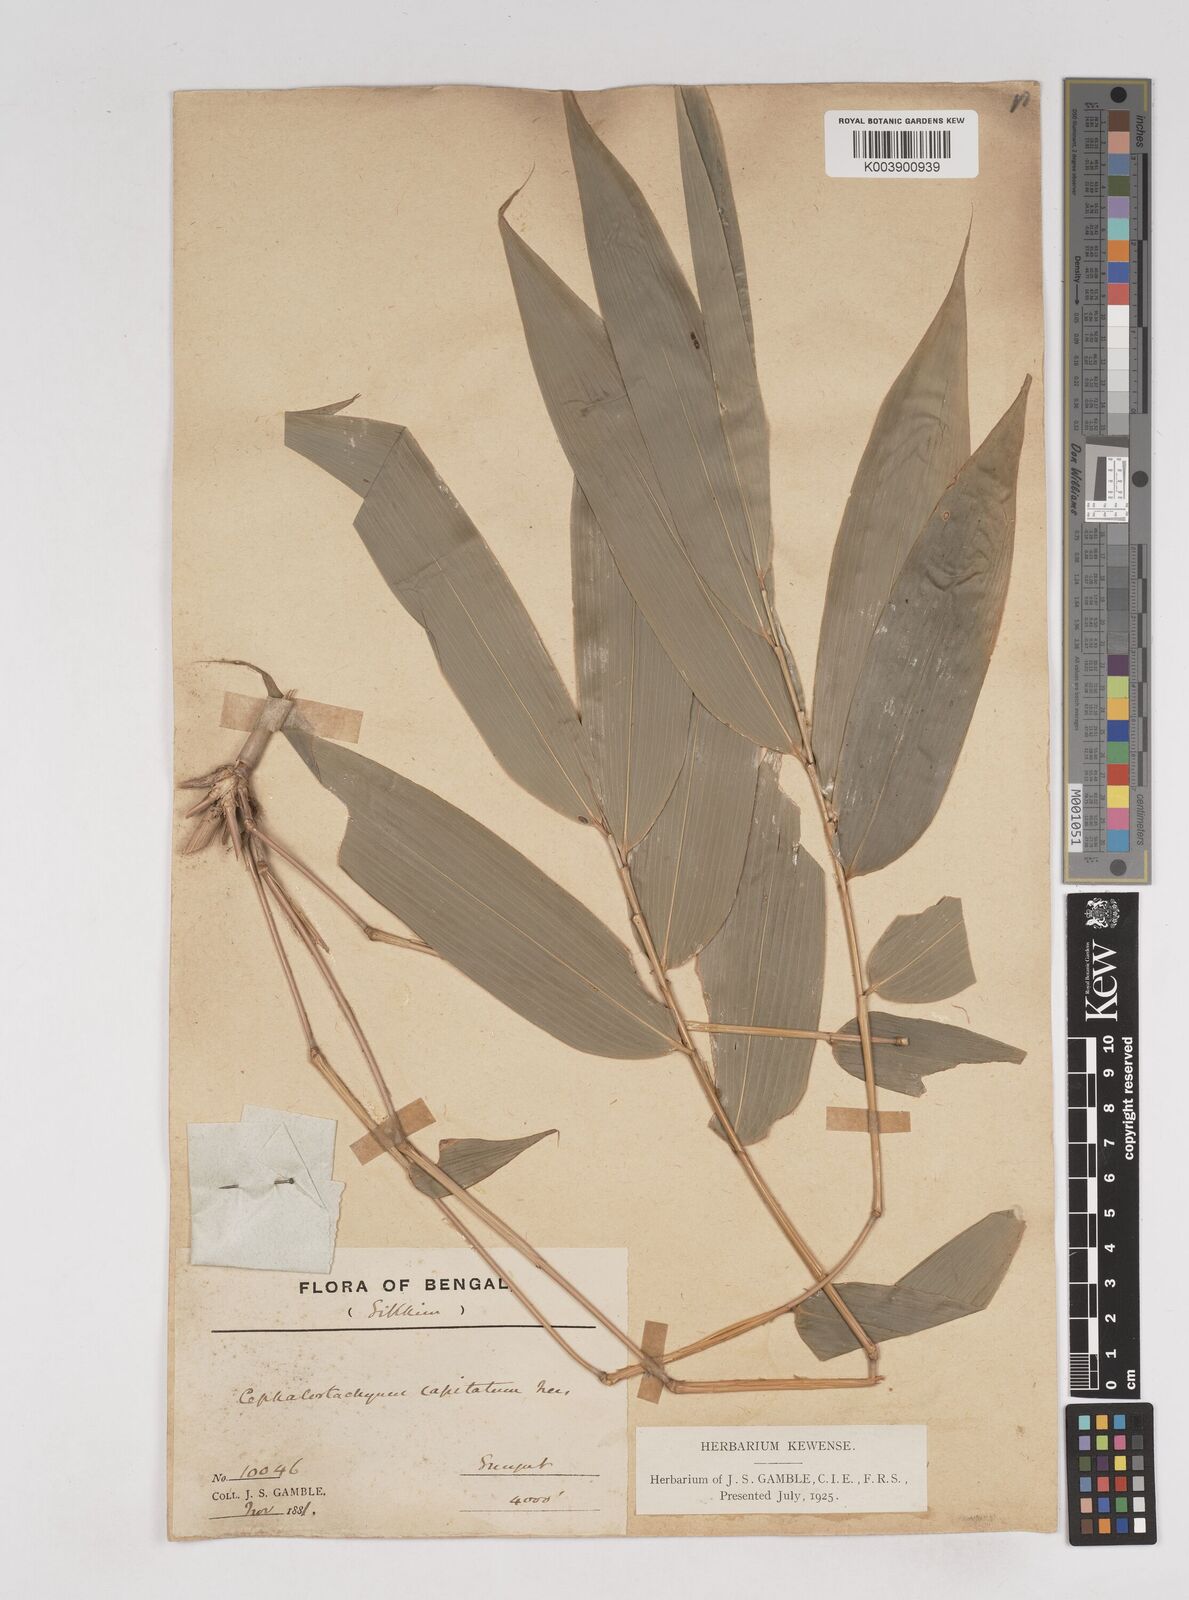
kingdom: Plantae
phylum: Tracheophyta
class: Liliopsida
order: Poales
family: Poaceae
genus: Cephalostachyum
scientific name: Cephalostachyum
